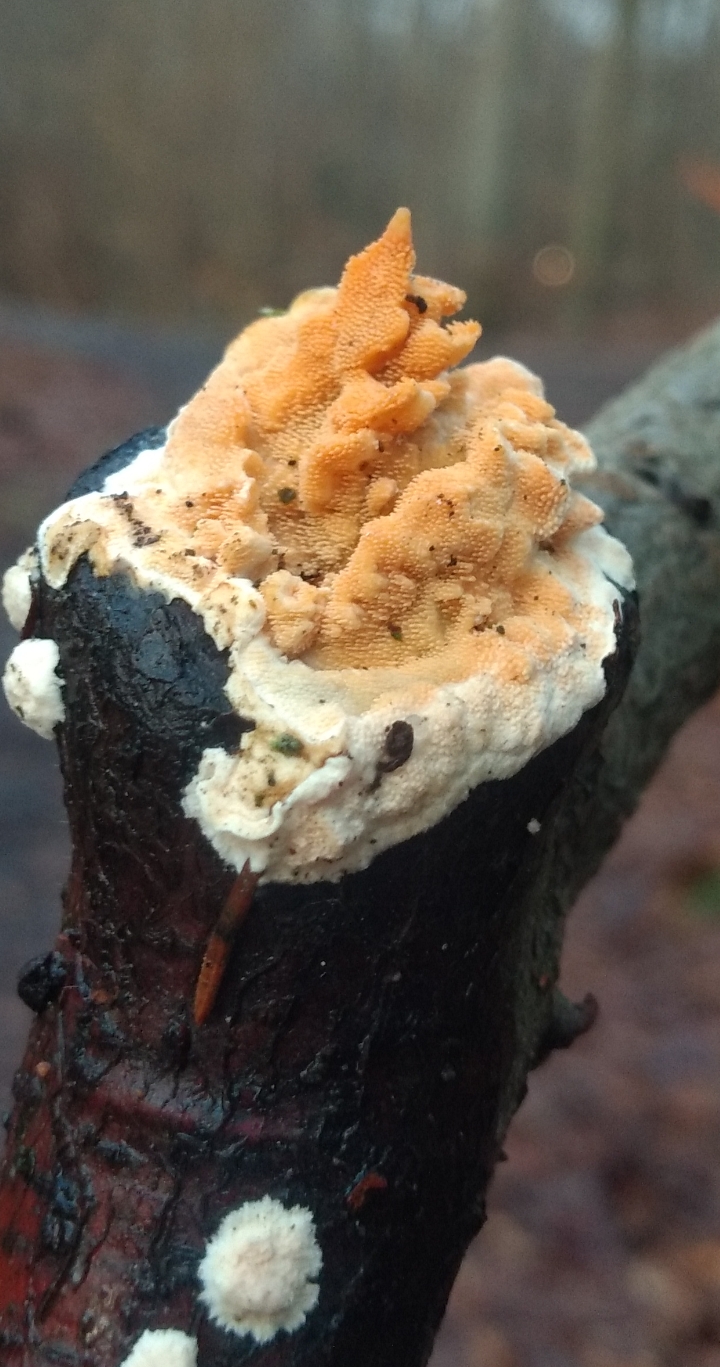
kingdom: Fungi
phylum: Basidiomycota
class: Agaricomycetes
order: Polyporales
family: Steccherinaceae
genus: Steccherinum
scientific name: Steccherinum ochraceum
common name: almindelig skønpig
